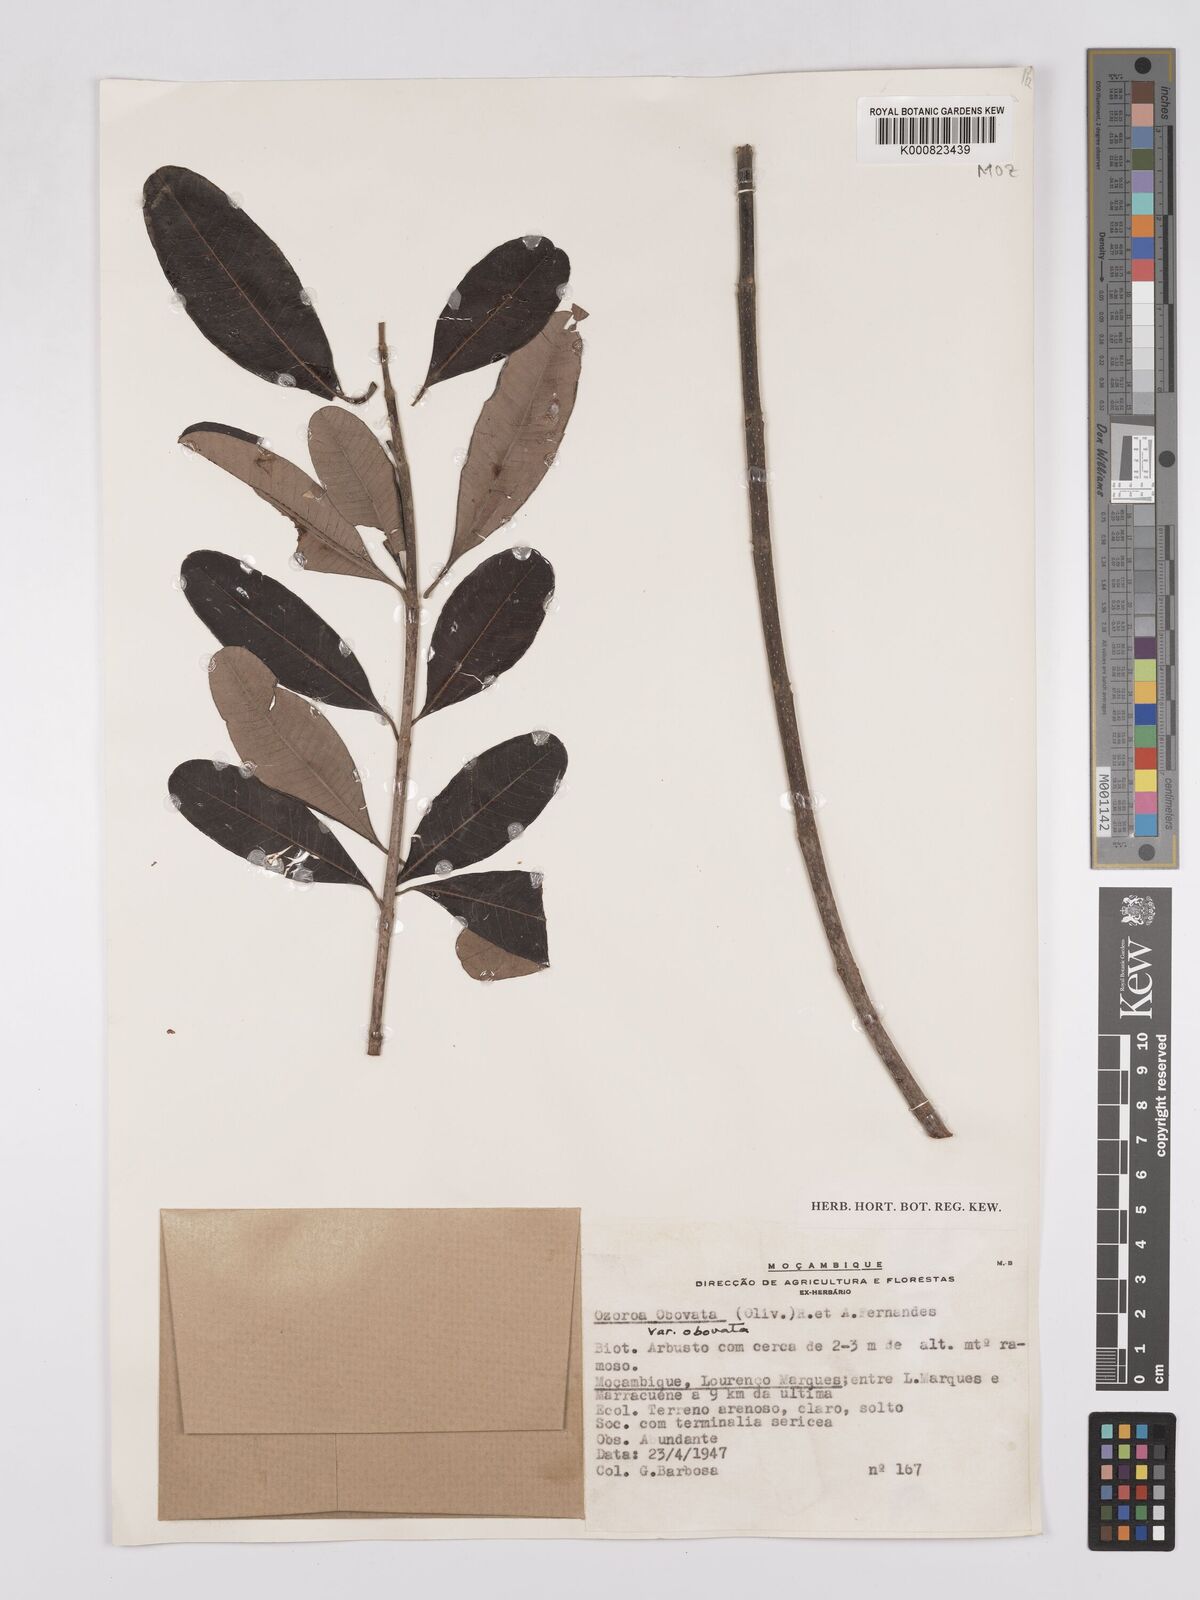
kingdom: Plantae
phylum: Tracheophyta
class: Magnoliopsida
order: Sapindales
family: Anacardiaceae
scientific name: Anacardiaceae
